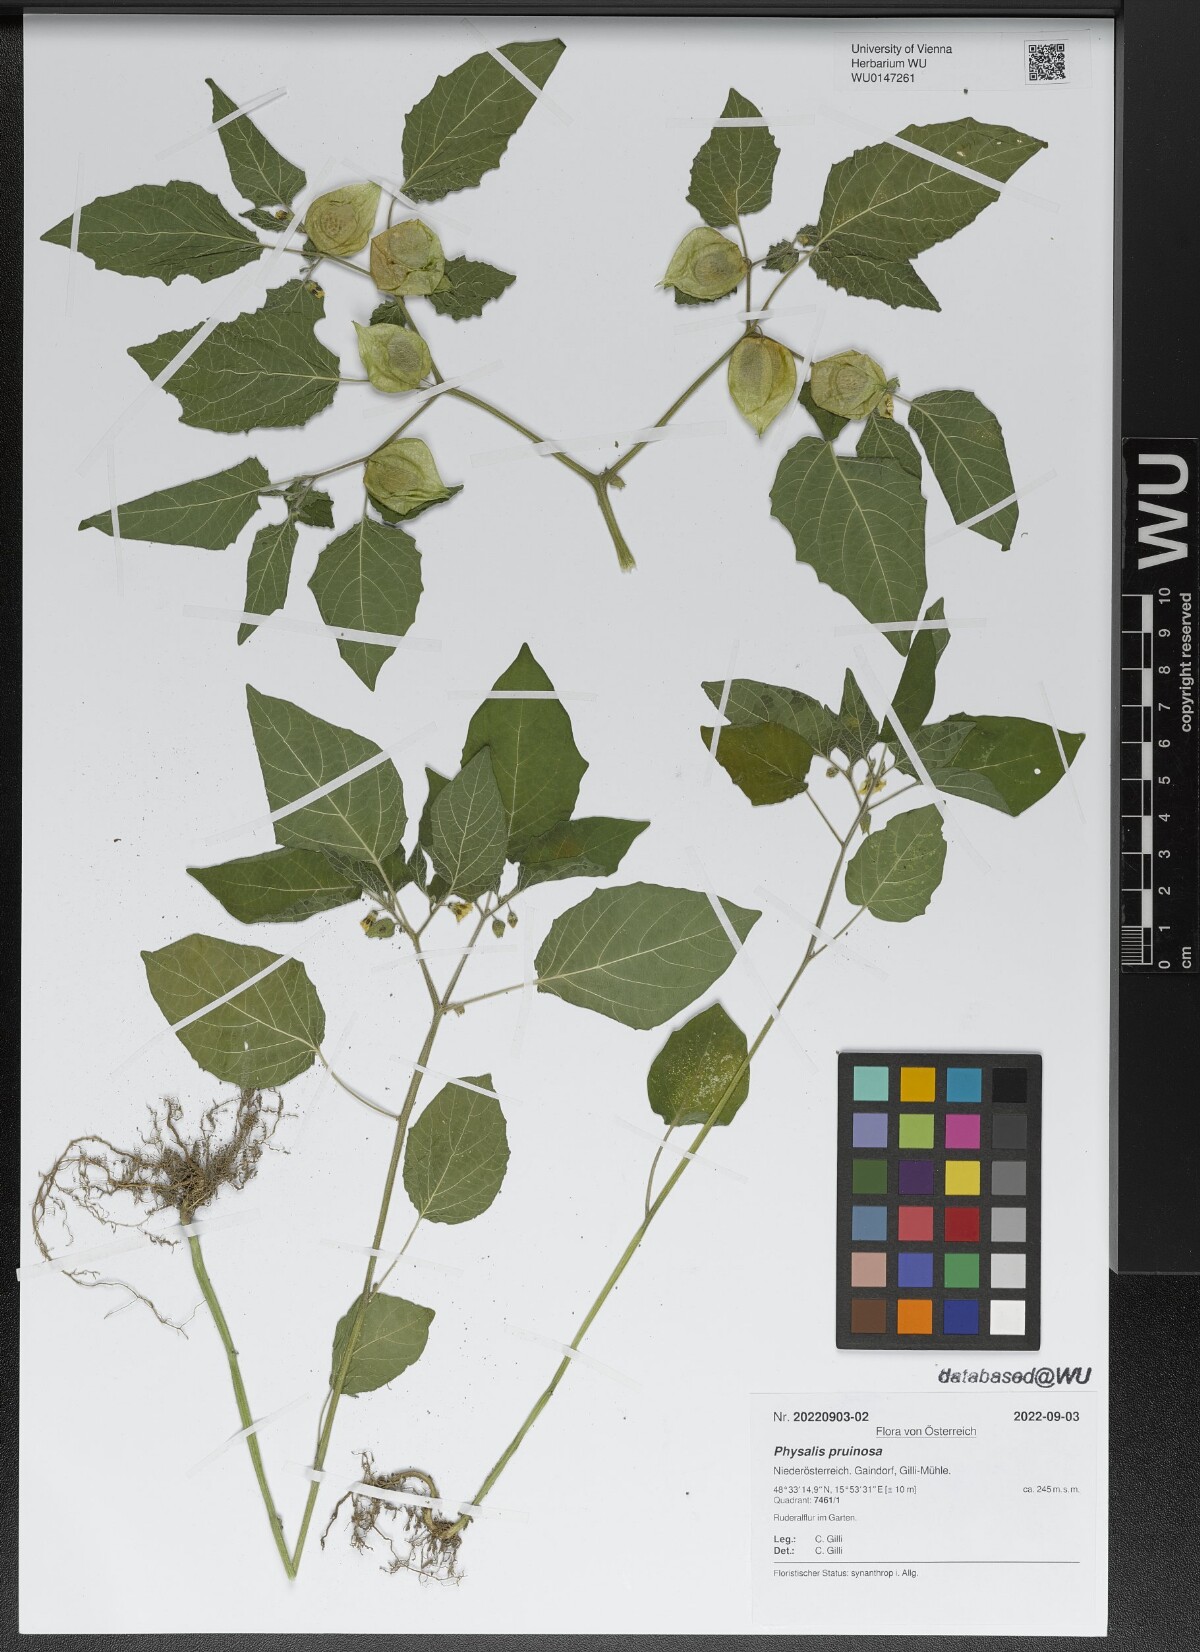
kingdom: Plantae
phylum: Tracheophyta
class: Magnoliopsida
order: Solanales
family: Solanaceae
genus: Physalis
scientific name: Physalis pruinosa
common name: Strawberry tomato
